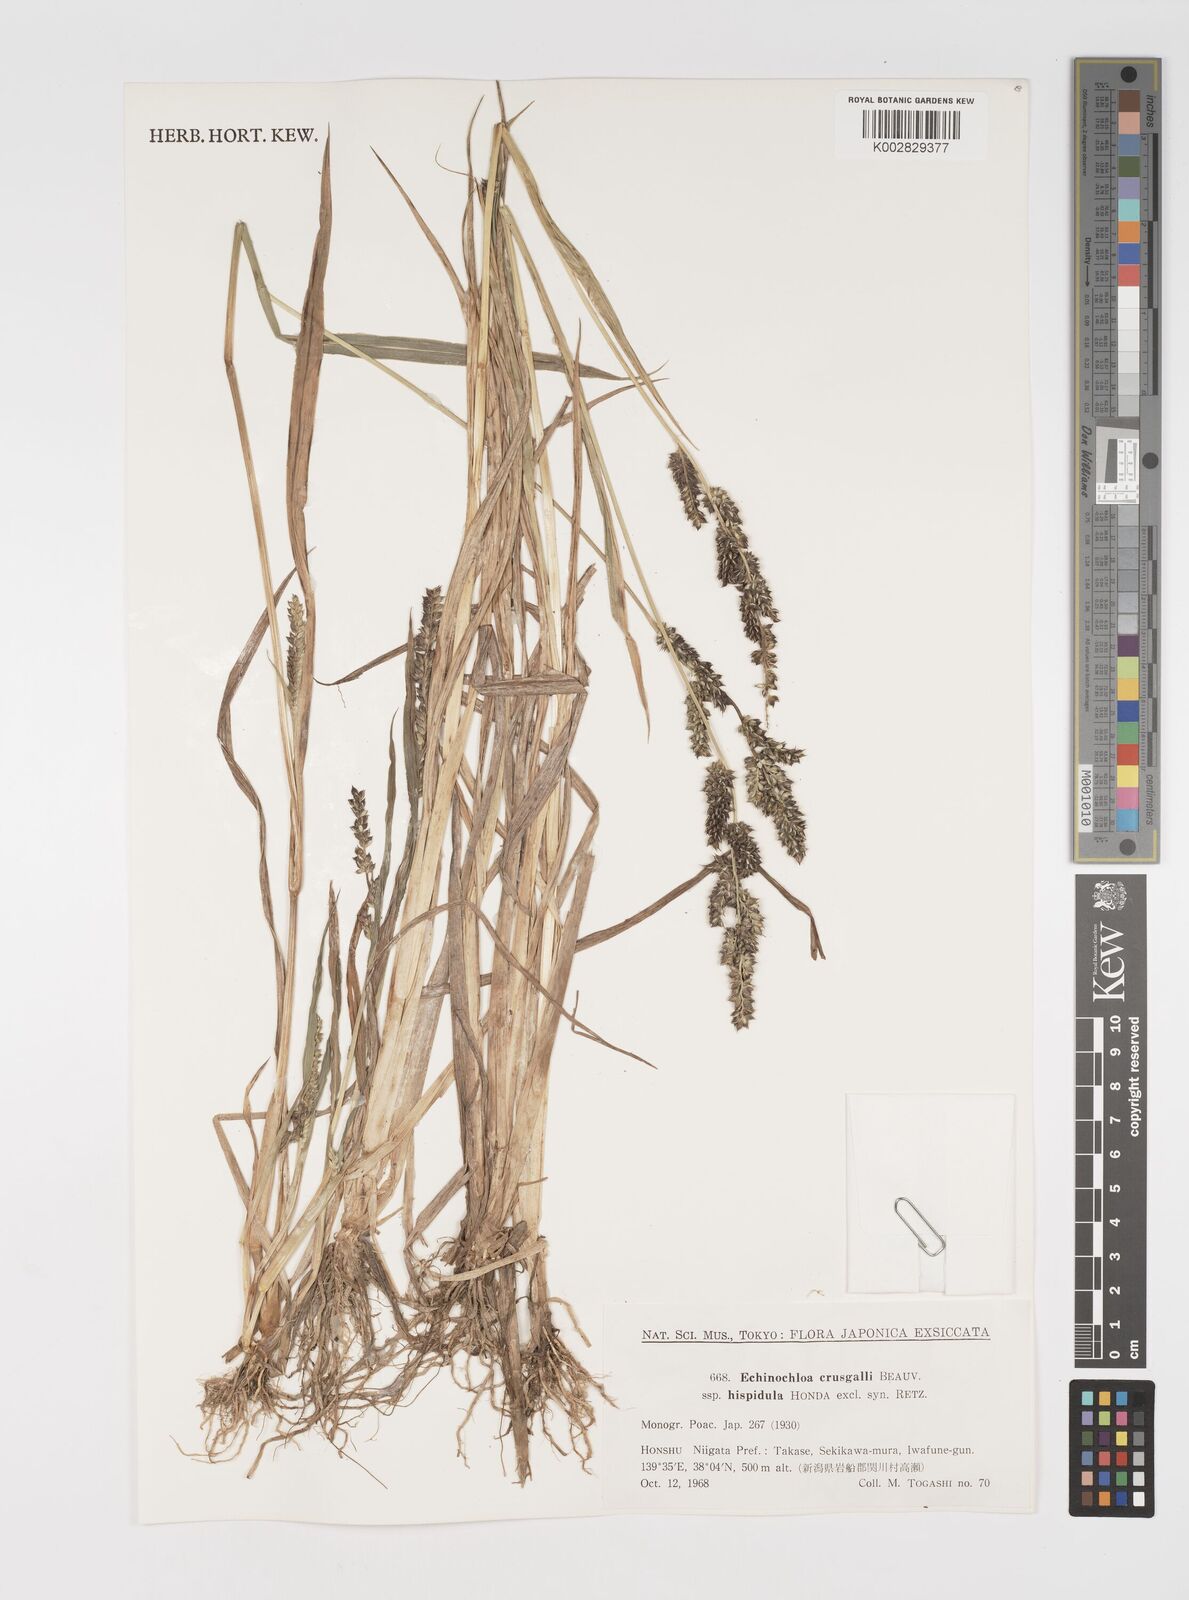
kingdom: Plantae
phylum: Tracheophyta
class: Liliopsida
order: Poales
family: Poaceae
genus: Echinochloa
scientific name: Echinochloa crus-galli
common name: Cockspur
